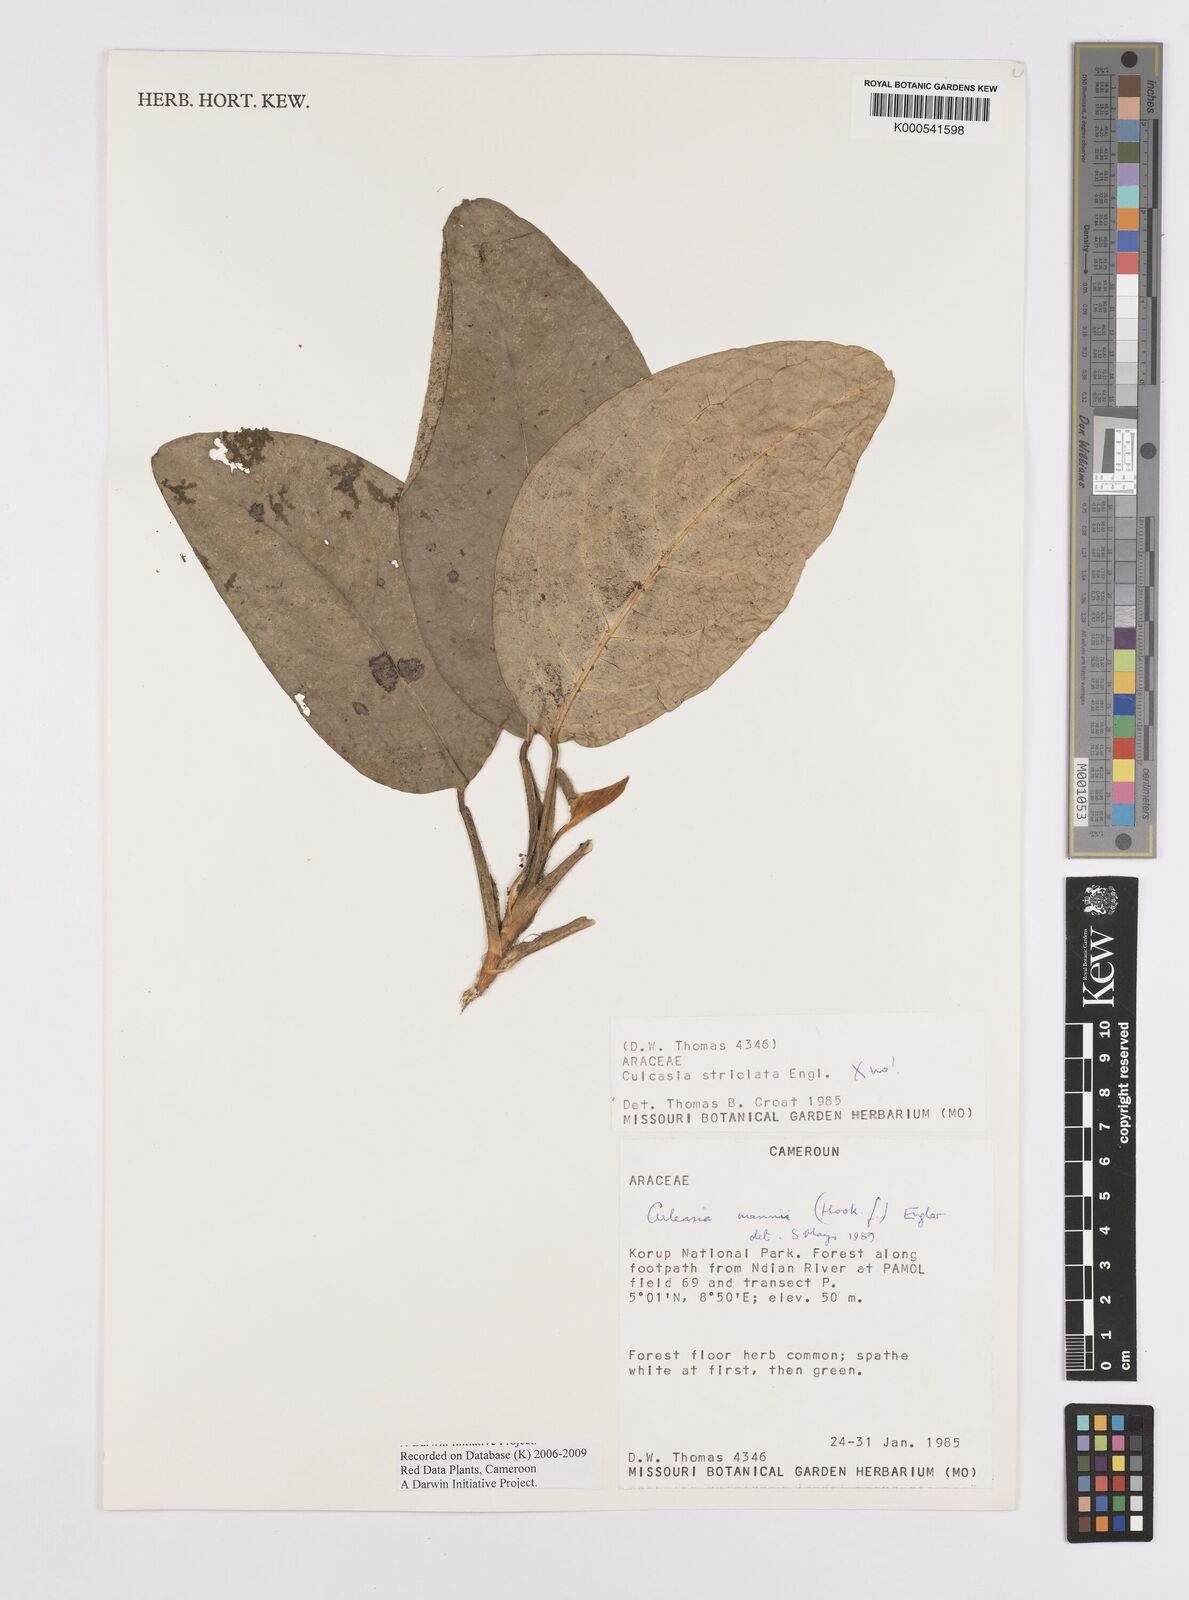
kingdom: Plantae
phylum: Tracheophyta
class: Liliopsida
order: Alismatales
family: Araceae
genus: Culcasia
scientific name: Culcasia mannii
